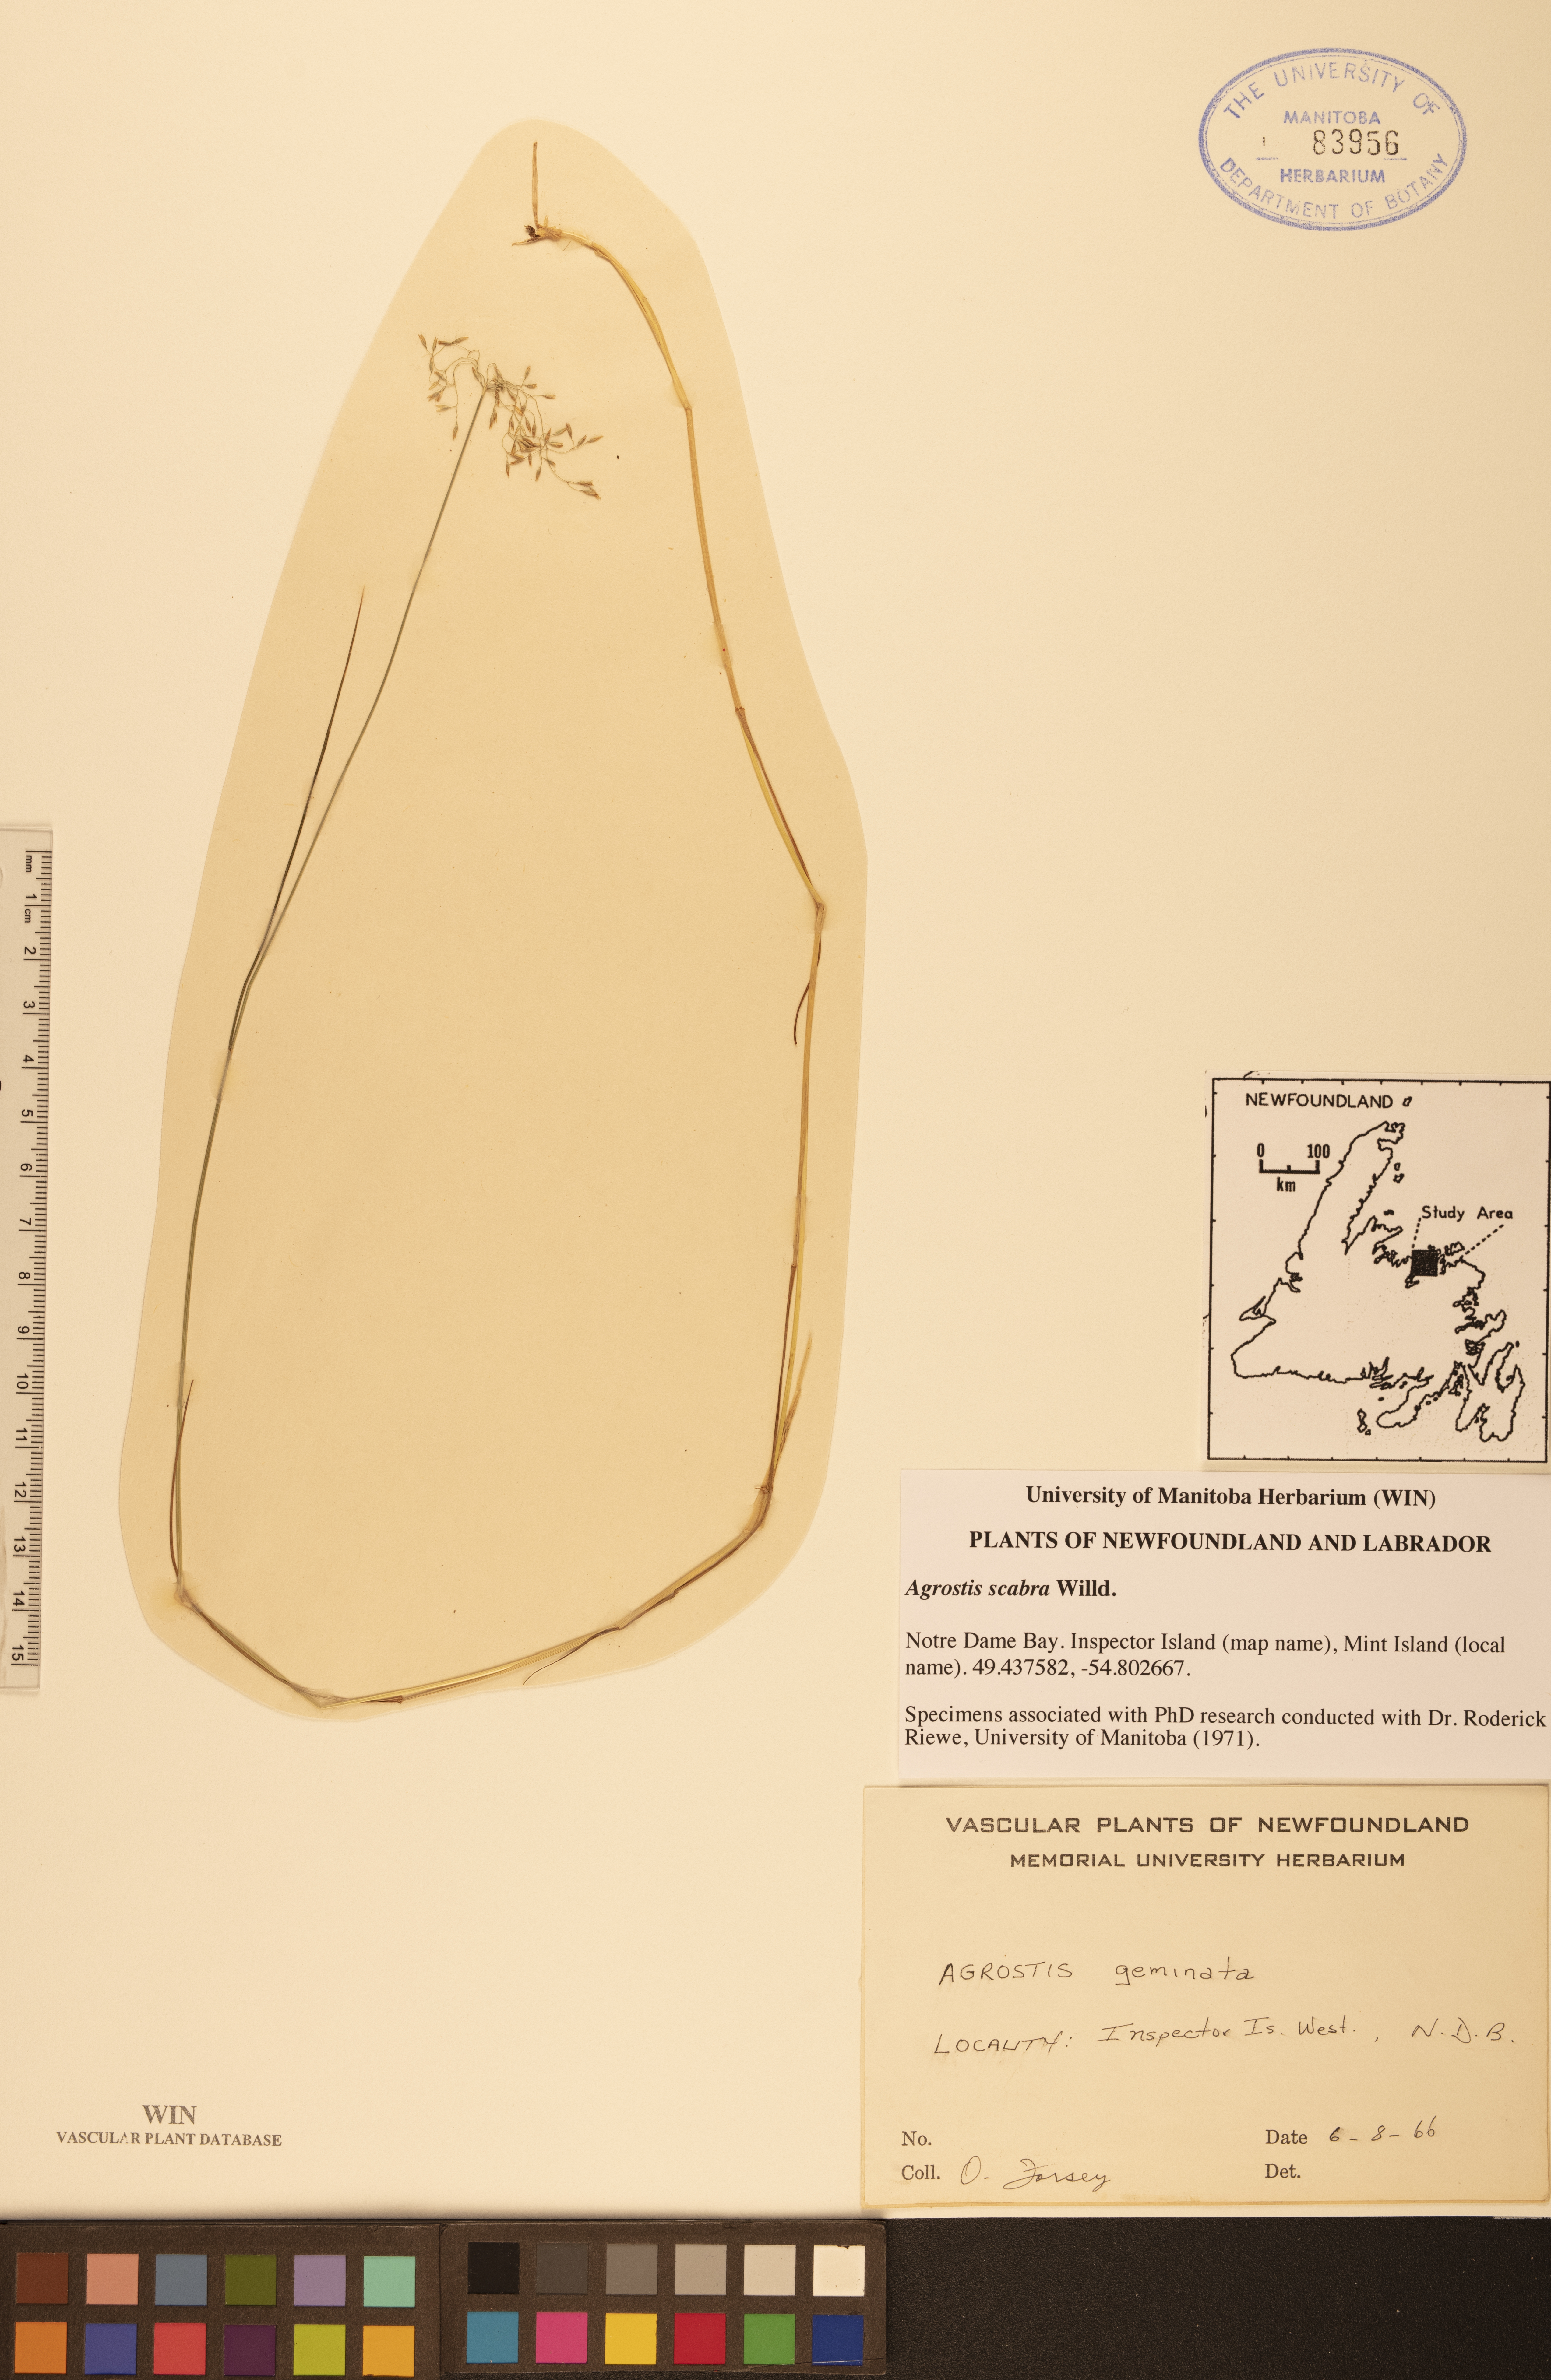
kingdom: Plantae
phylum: Tracheophyta
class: Liliopsida
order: Poales
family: Poaceae
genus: Agrostis
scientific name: Agrostis scabra
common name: Rough bent
